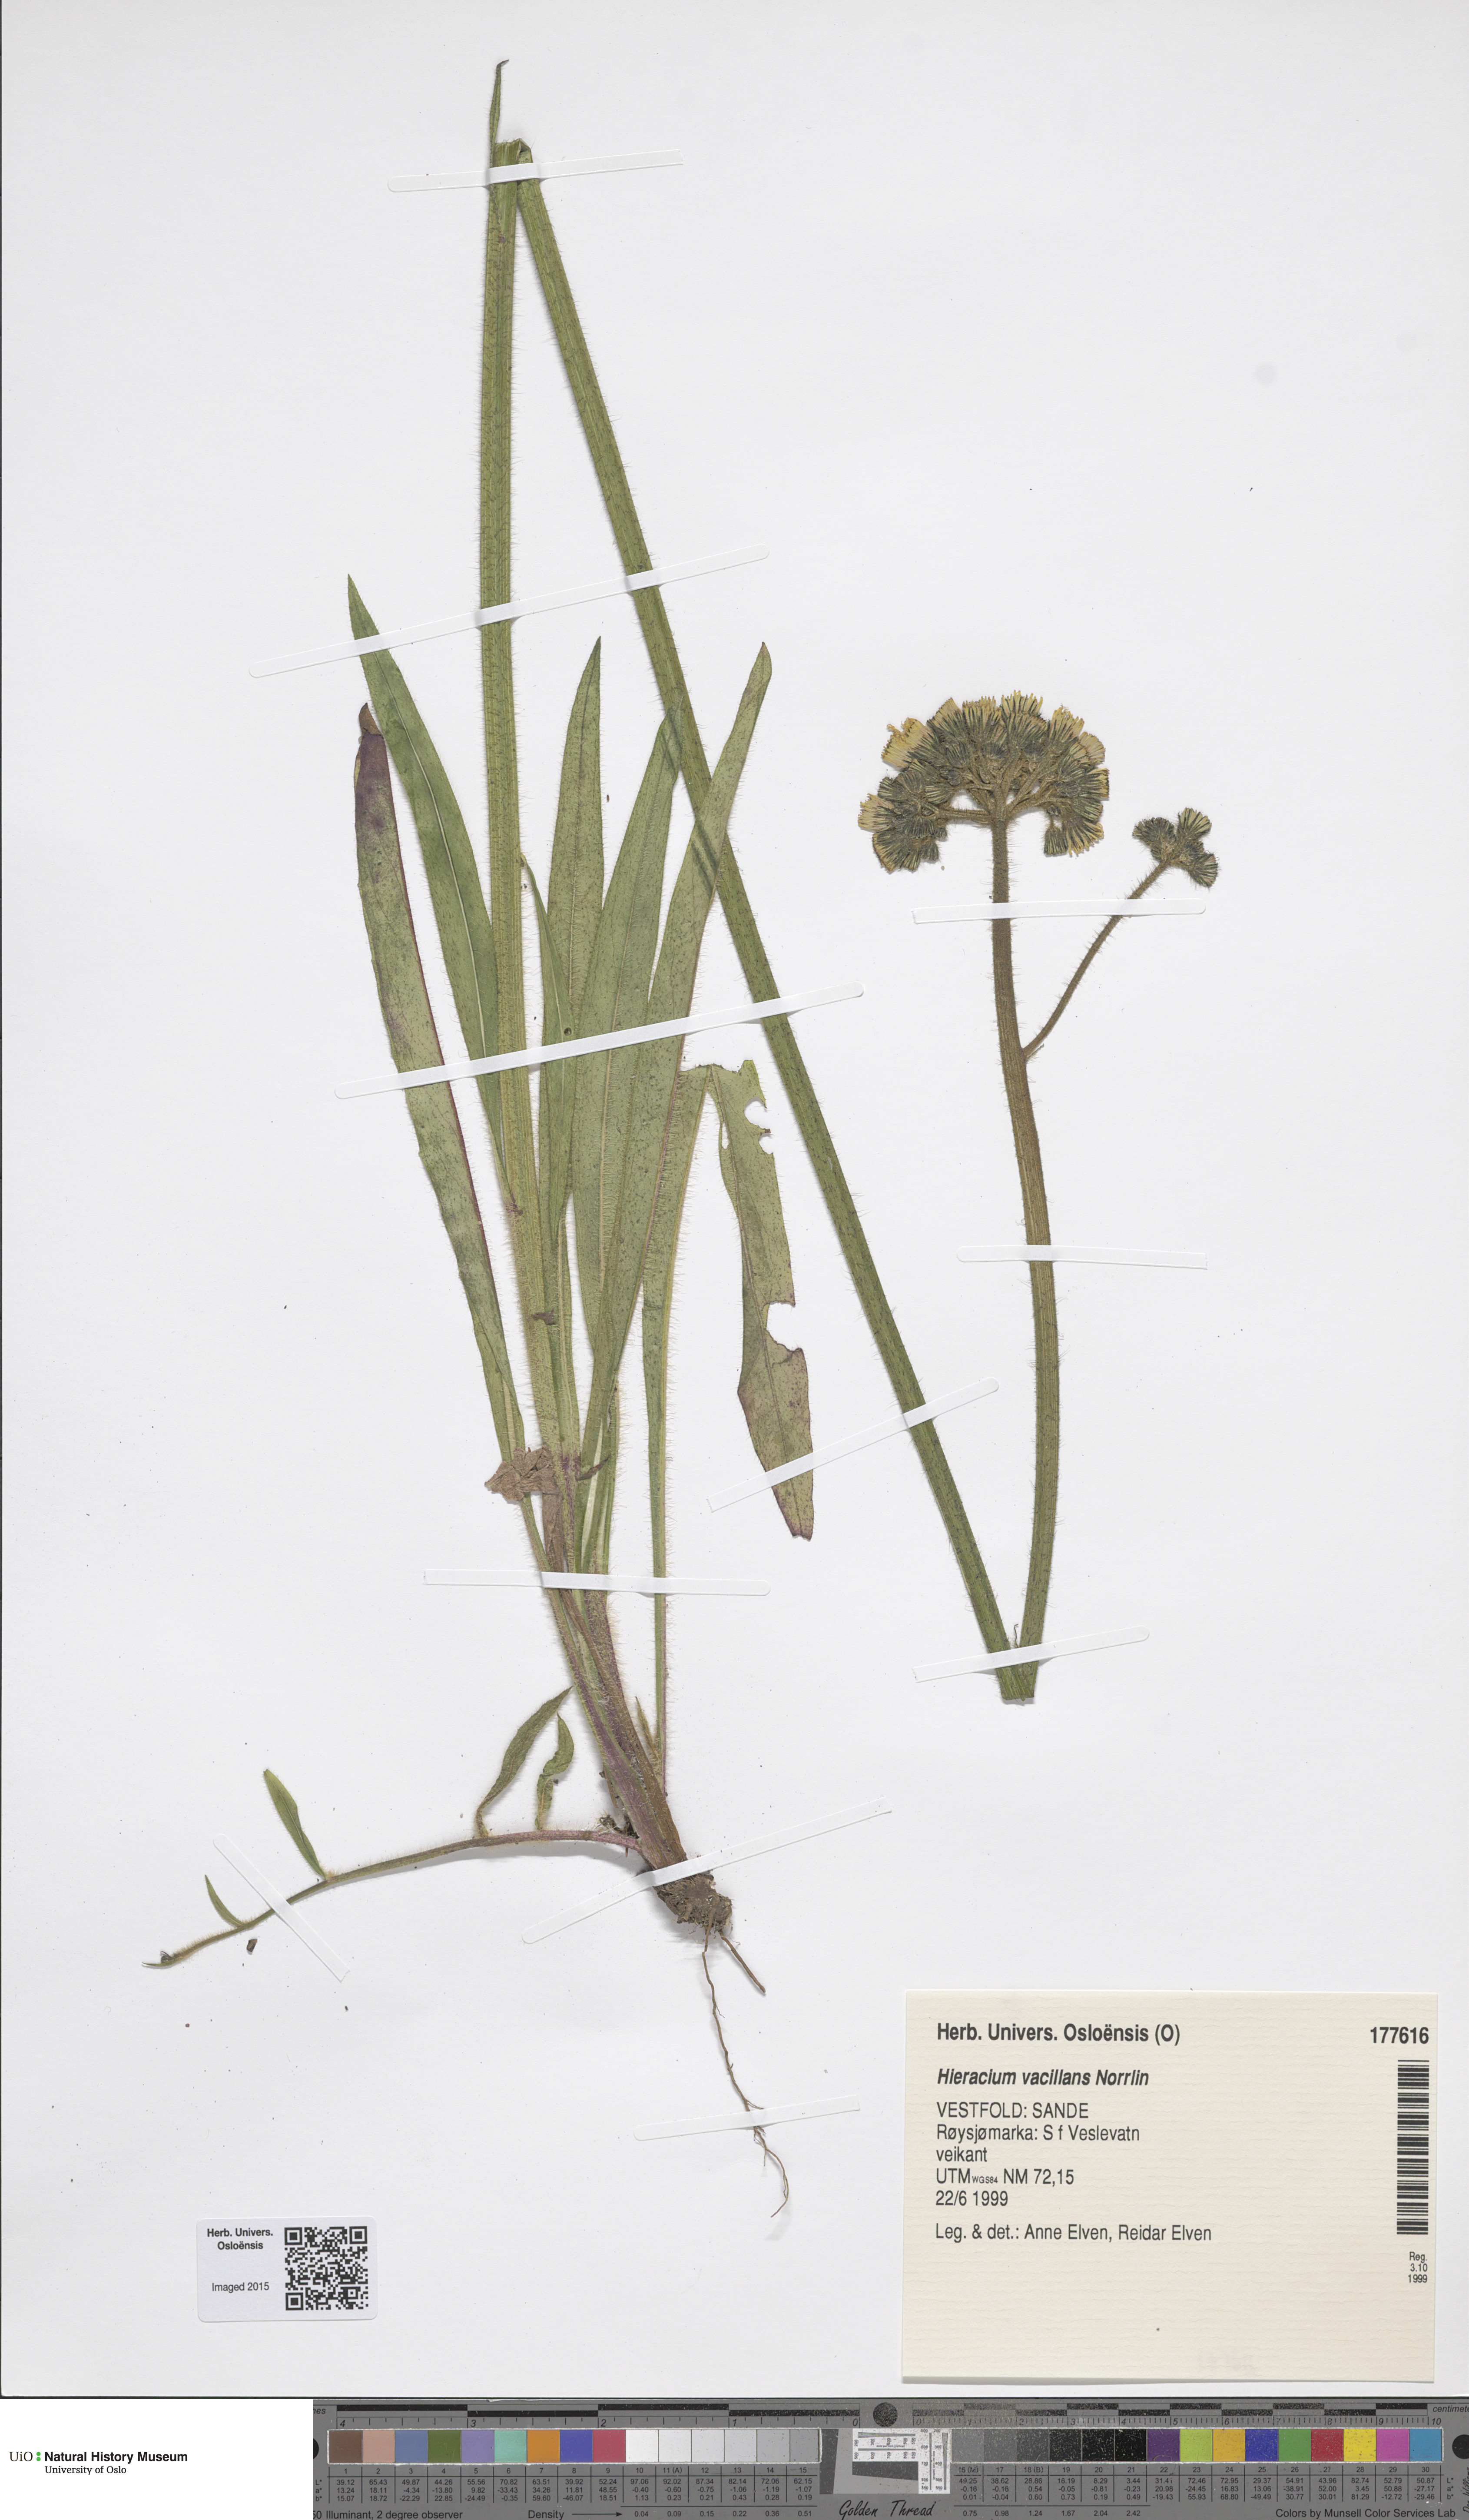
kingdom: Plantae
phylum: Tracheophyta
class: Magnoliopsida
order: Asterales
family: Asteraceae
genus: Pilosella
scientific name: Pilosella glomerata
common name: Queen devil hawkweed
